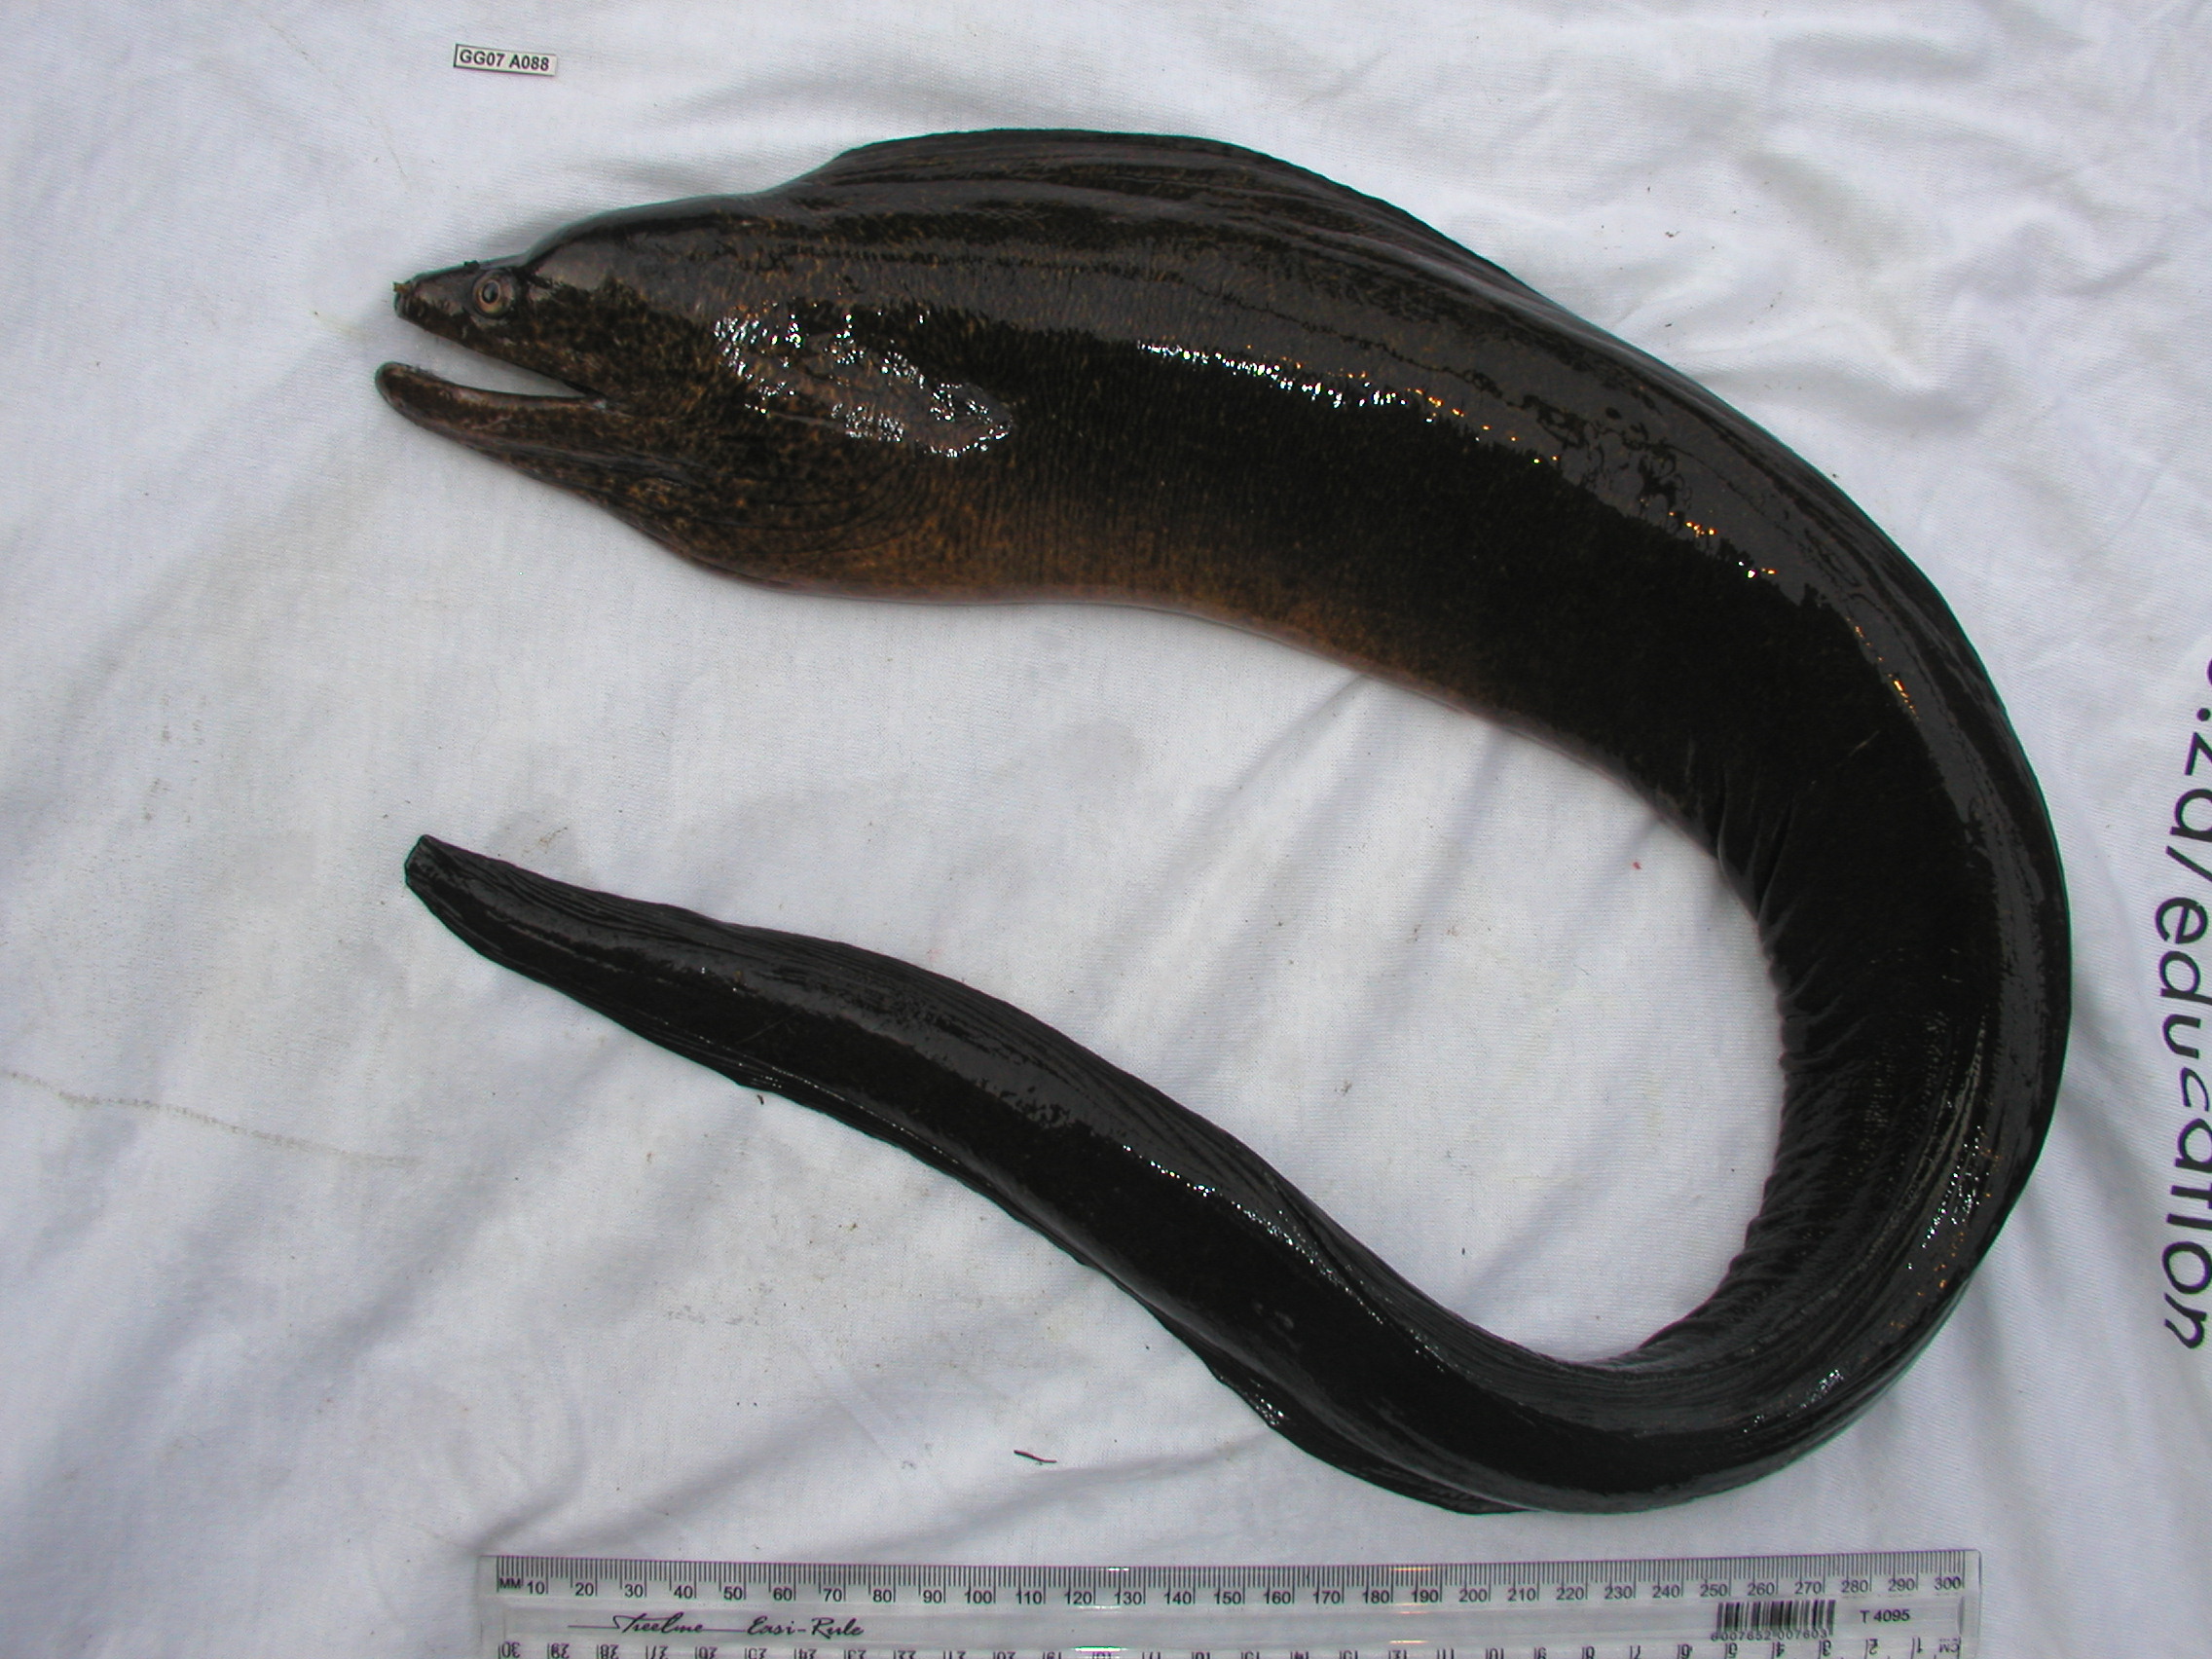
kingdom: Animalia
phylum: Chordata
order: Anguilliformes
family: Muraenidae
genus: Gymnothorax
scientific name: Gymnothorax undulatus
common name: Leopard moray
